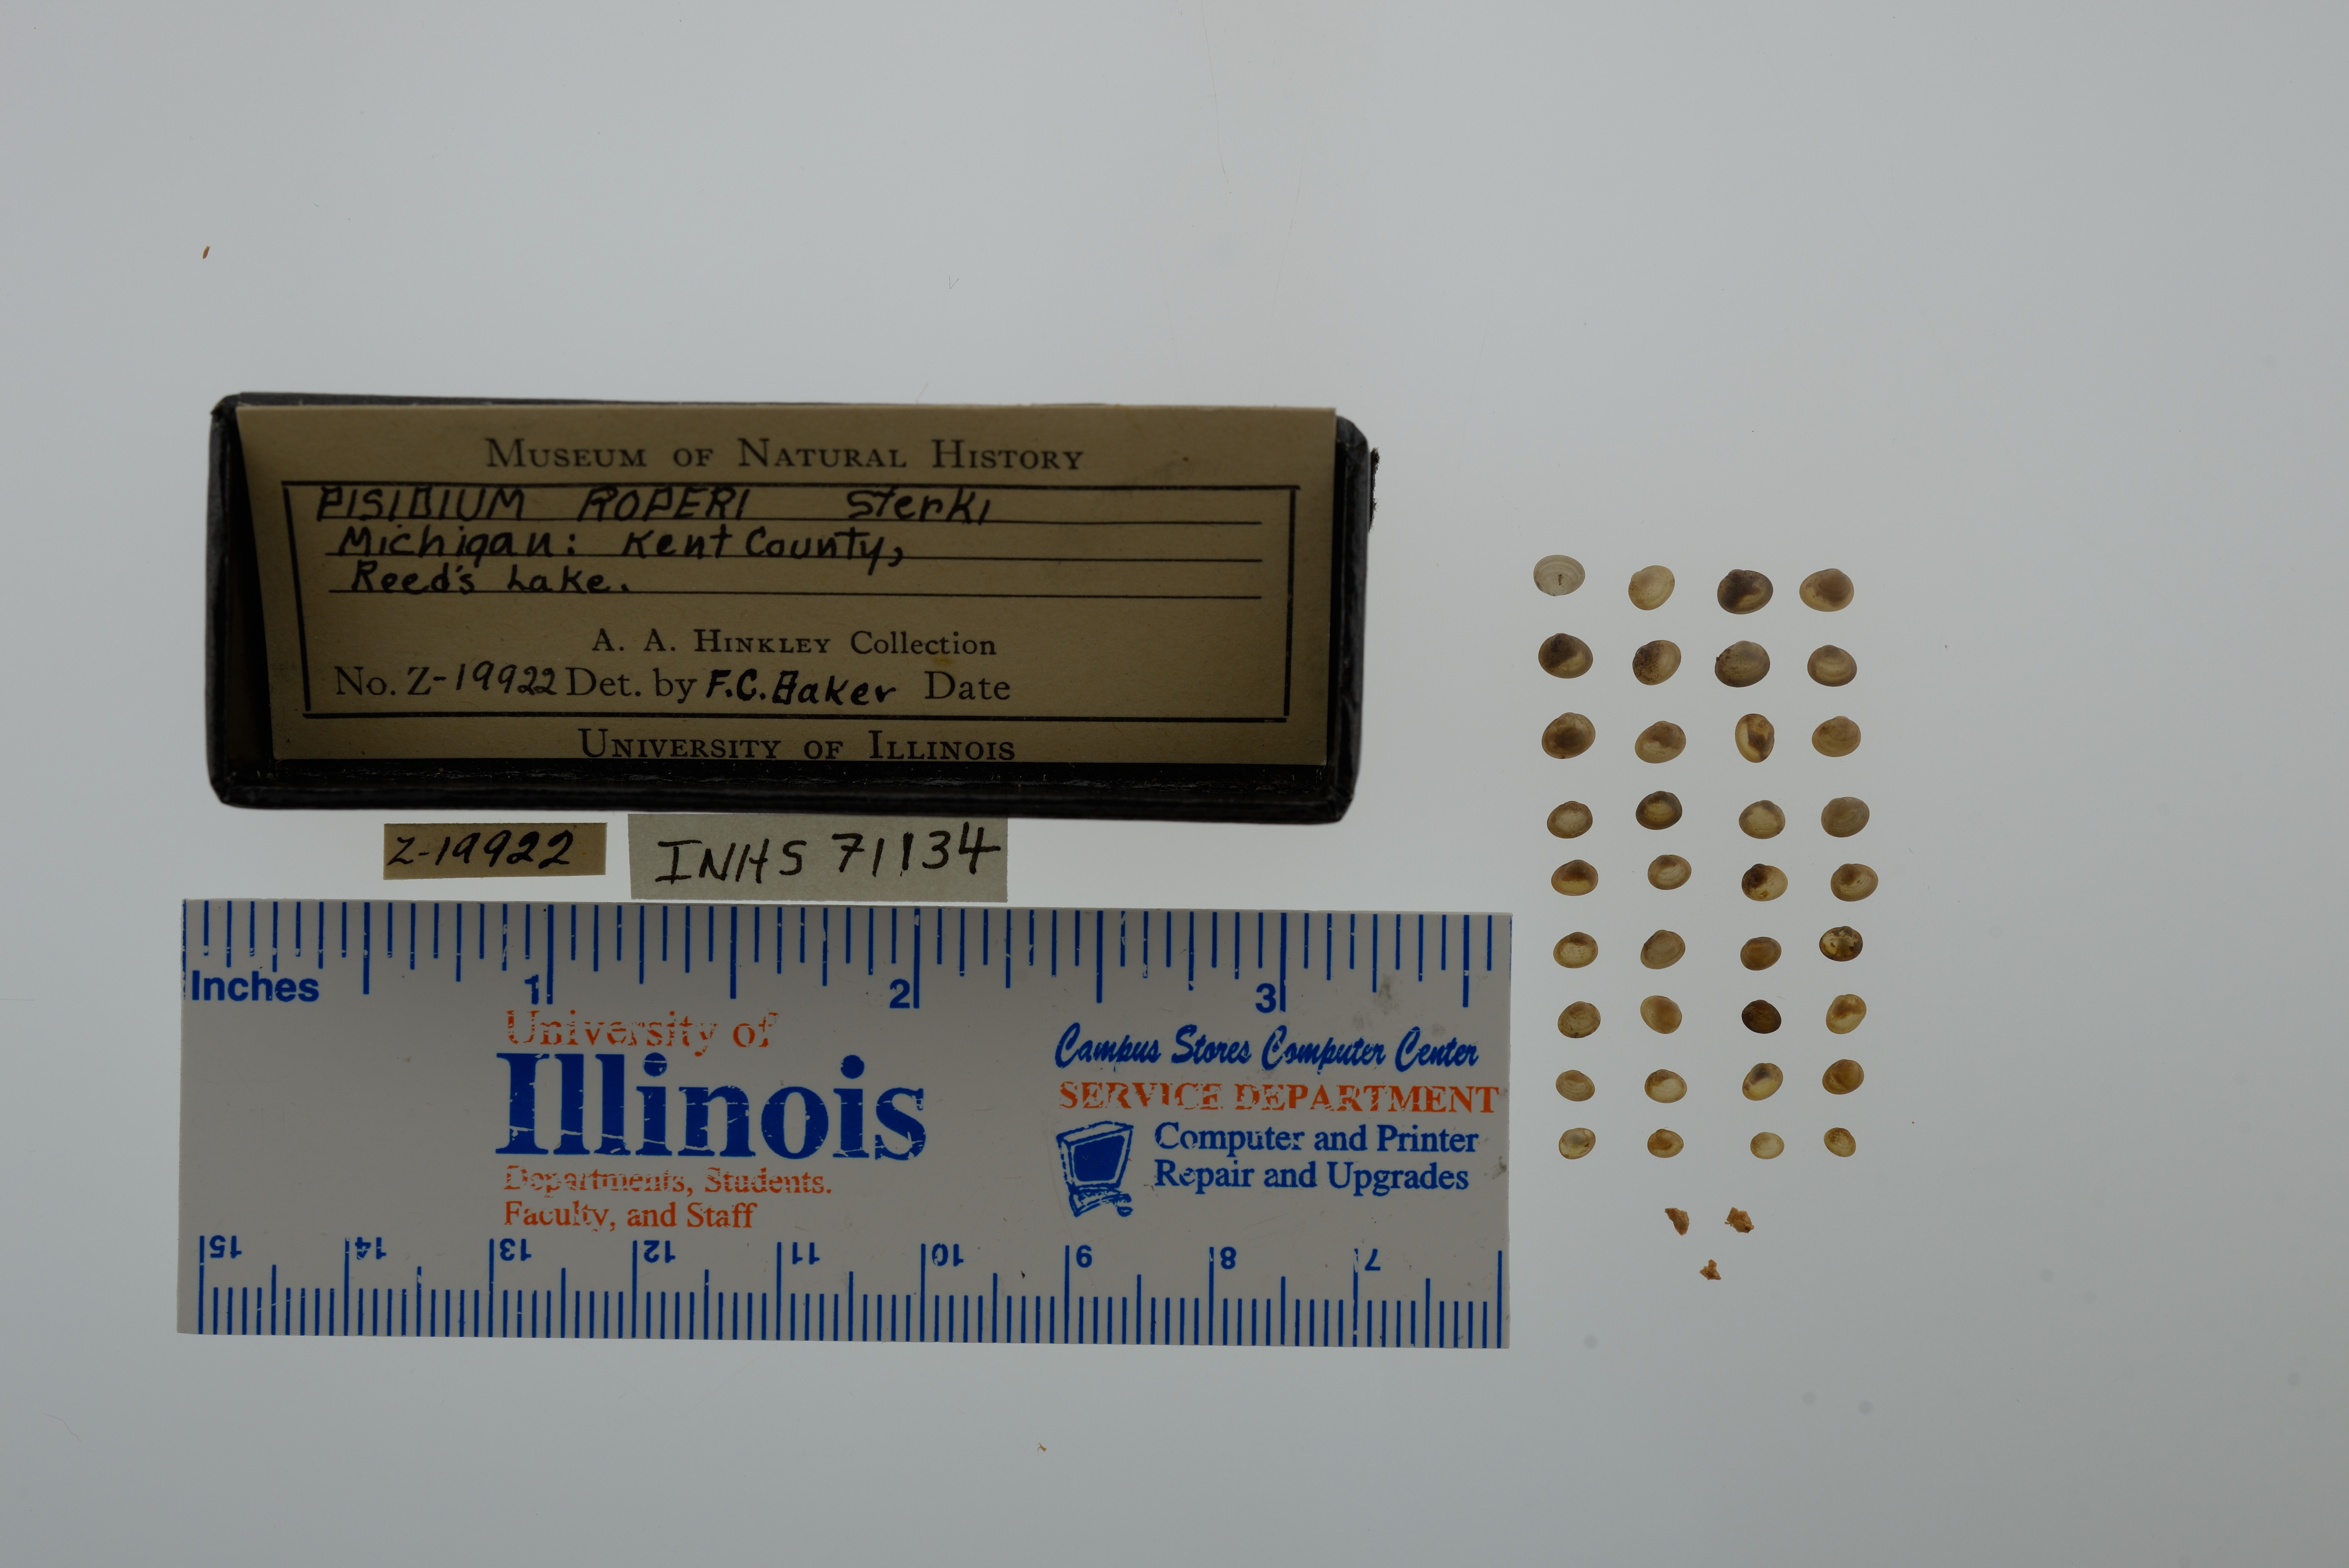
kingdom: Animalia
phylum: Mollusca
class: Bivalvia
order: Sphaeriida
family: Sphaeriidae
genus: Euglesa
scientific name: Euglesa casertana
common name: Caserta pea mussel
